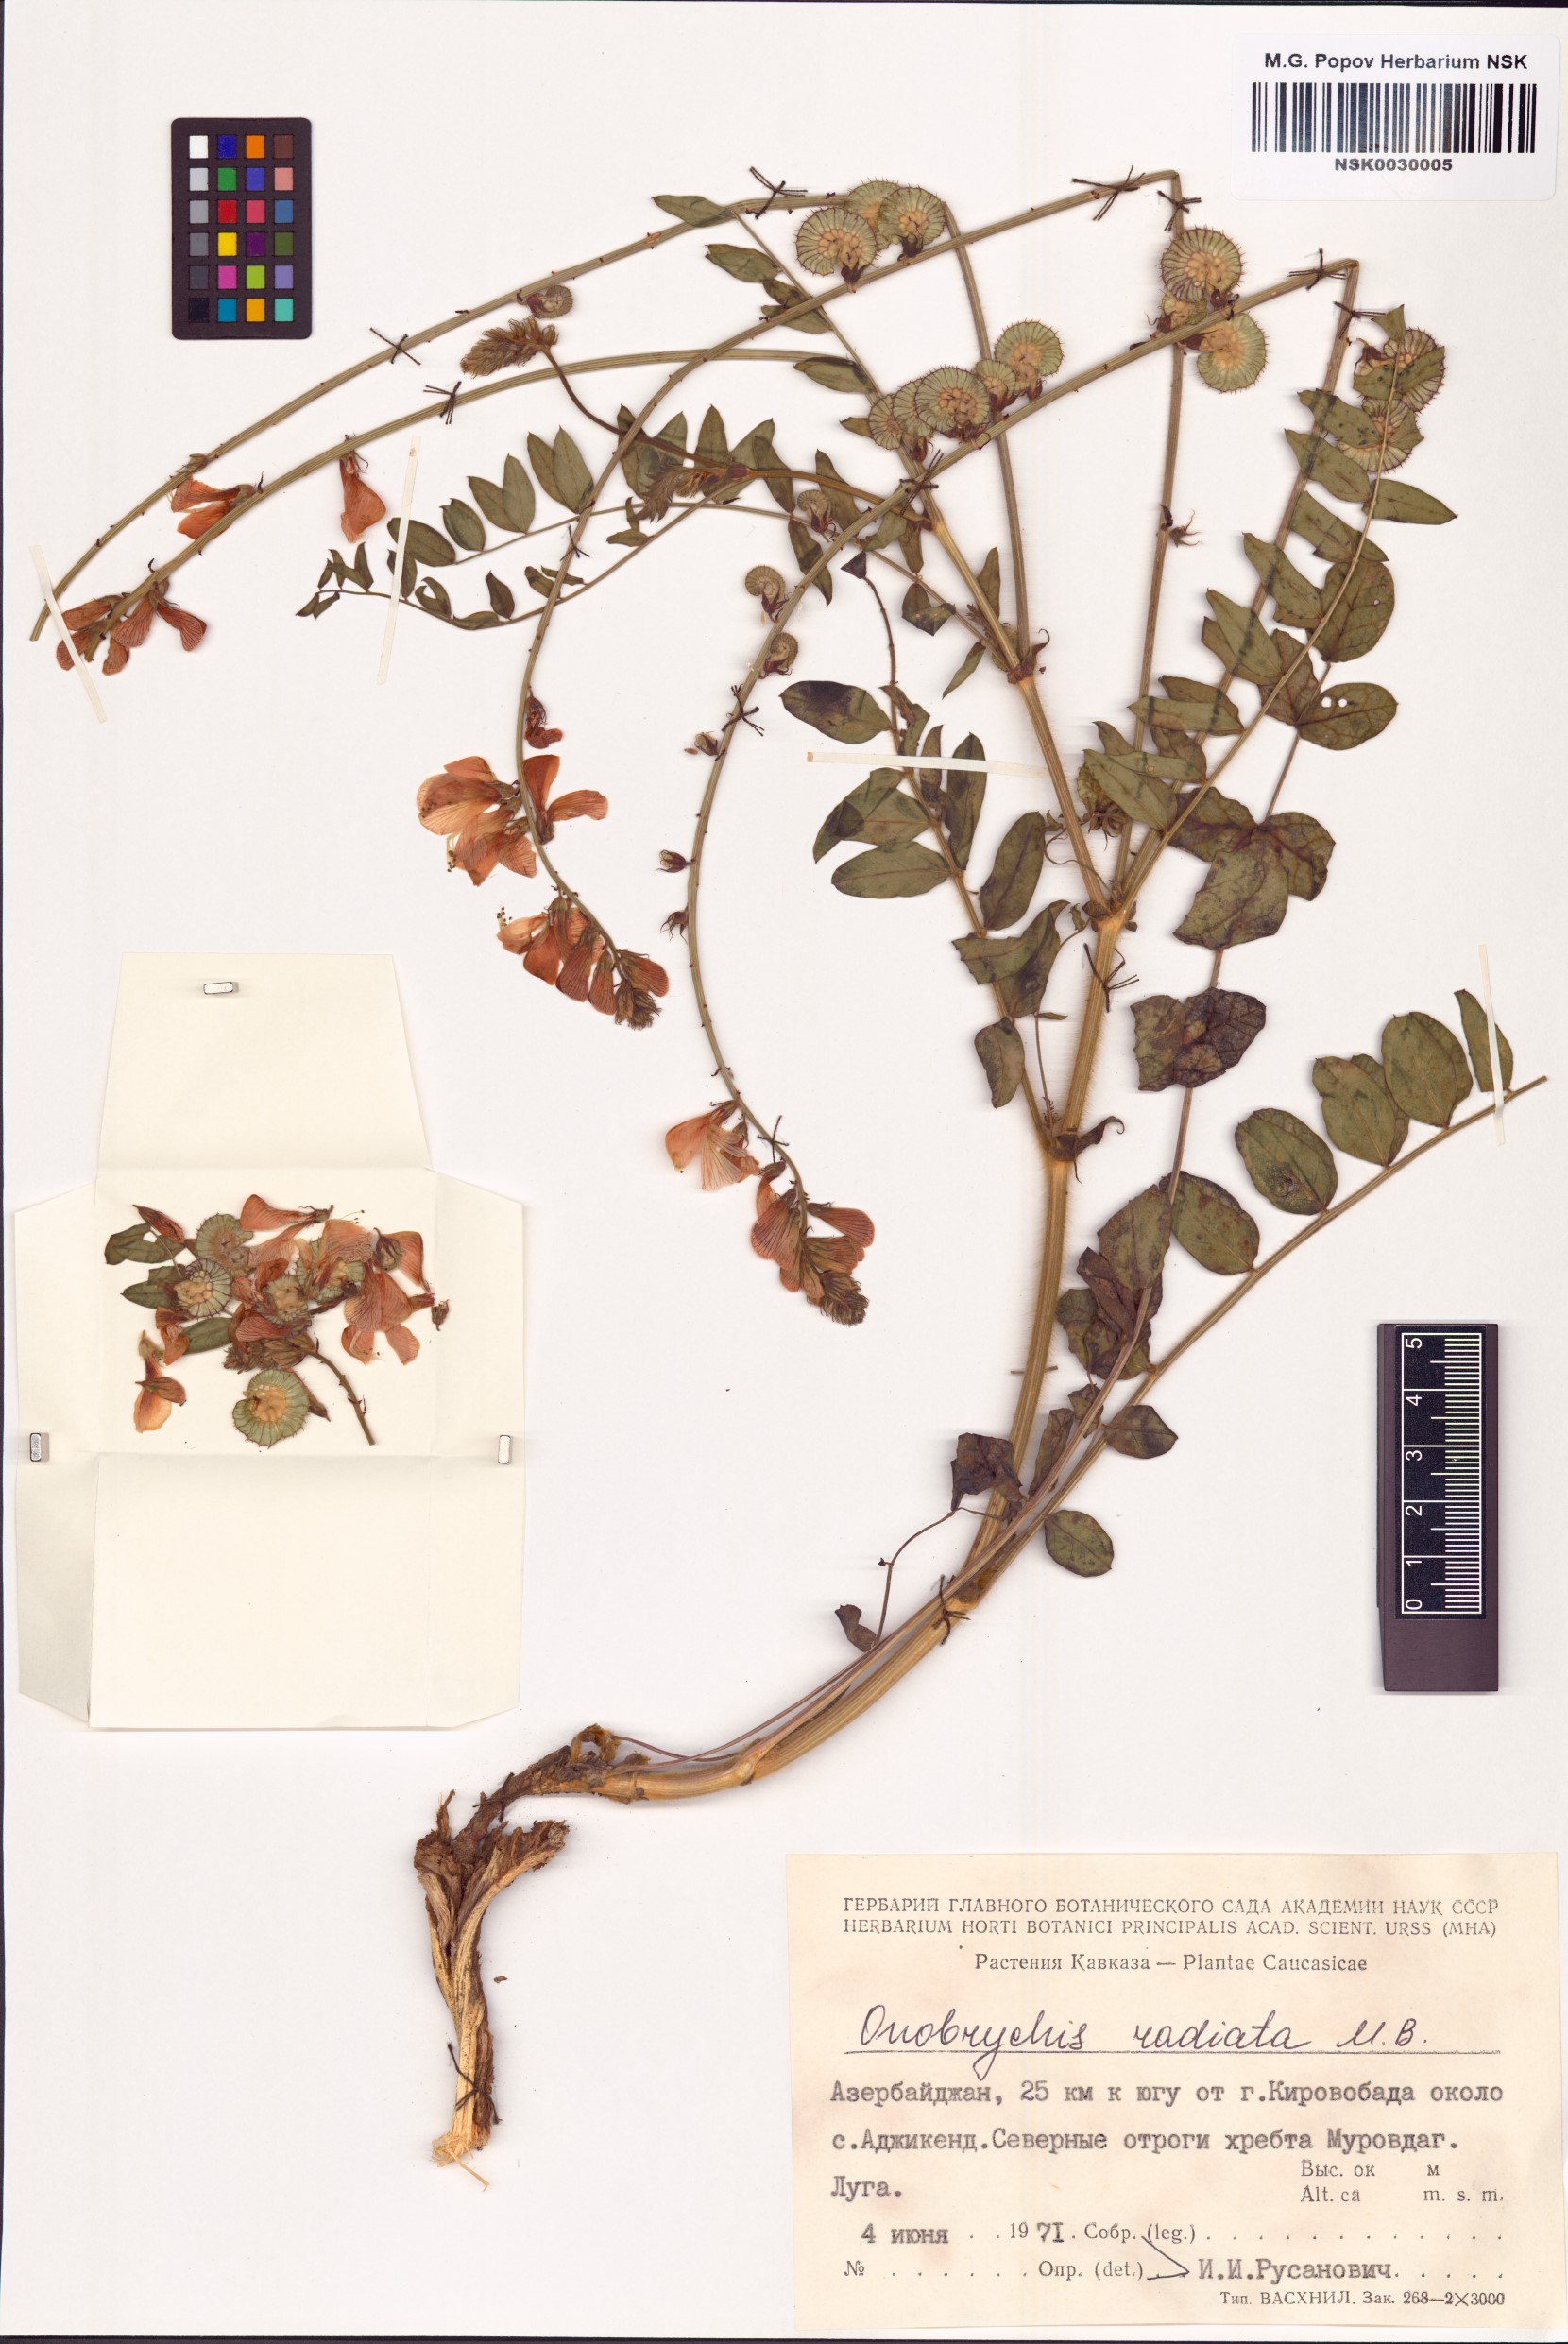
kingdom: Plantae
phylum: Tracheophyta
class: Magnoliopsida
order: Fabales
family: Fabaceae
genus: Onobrychis
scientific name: Onobrychis radiata
